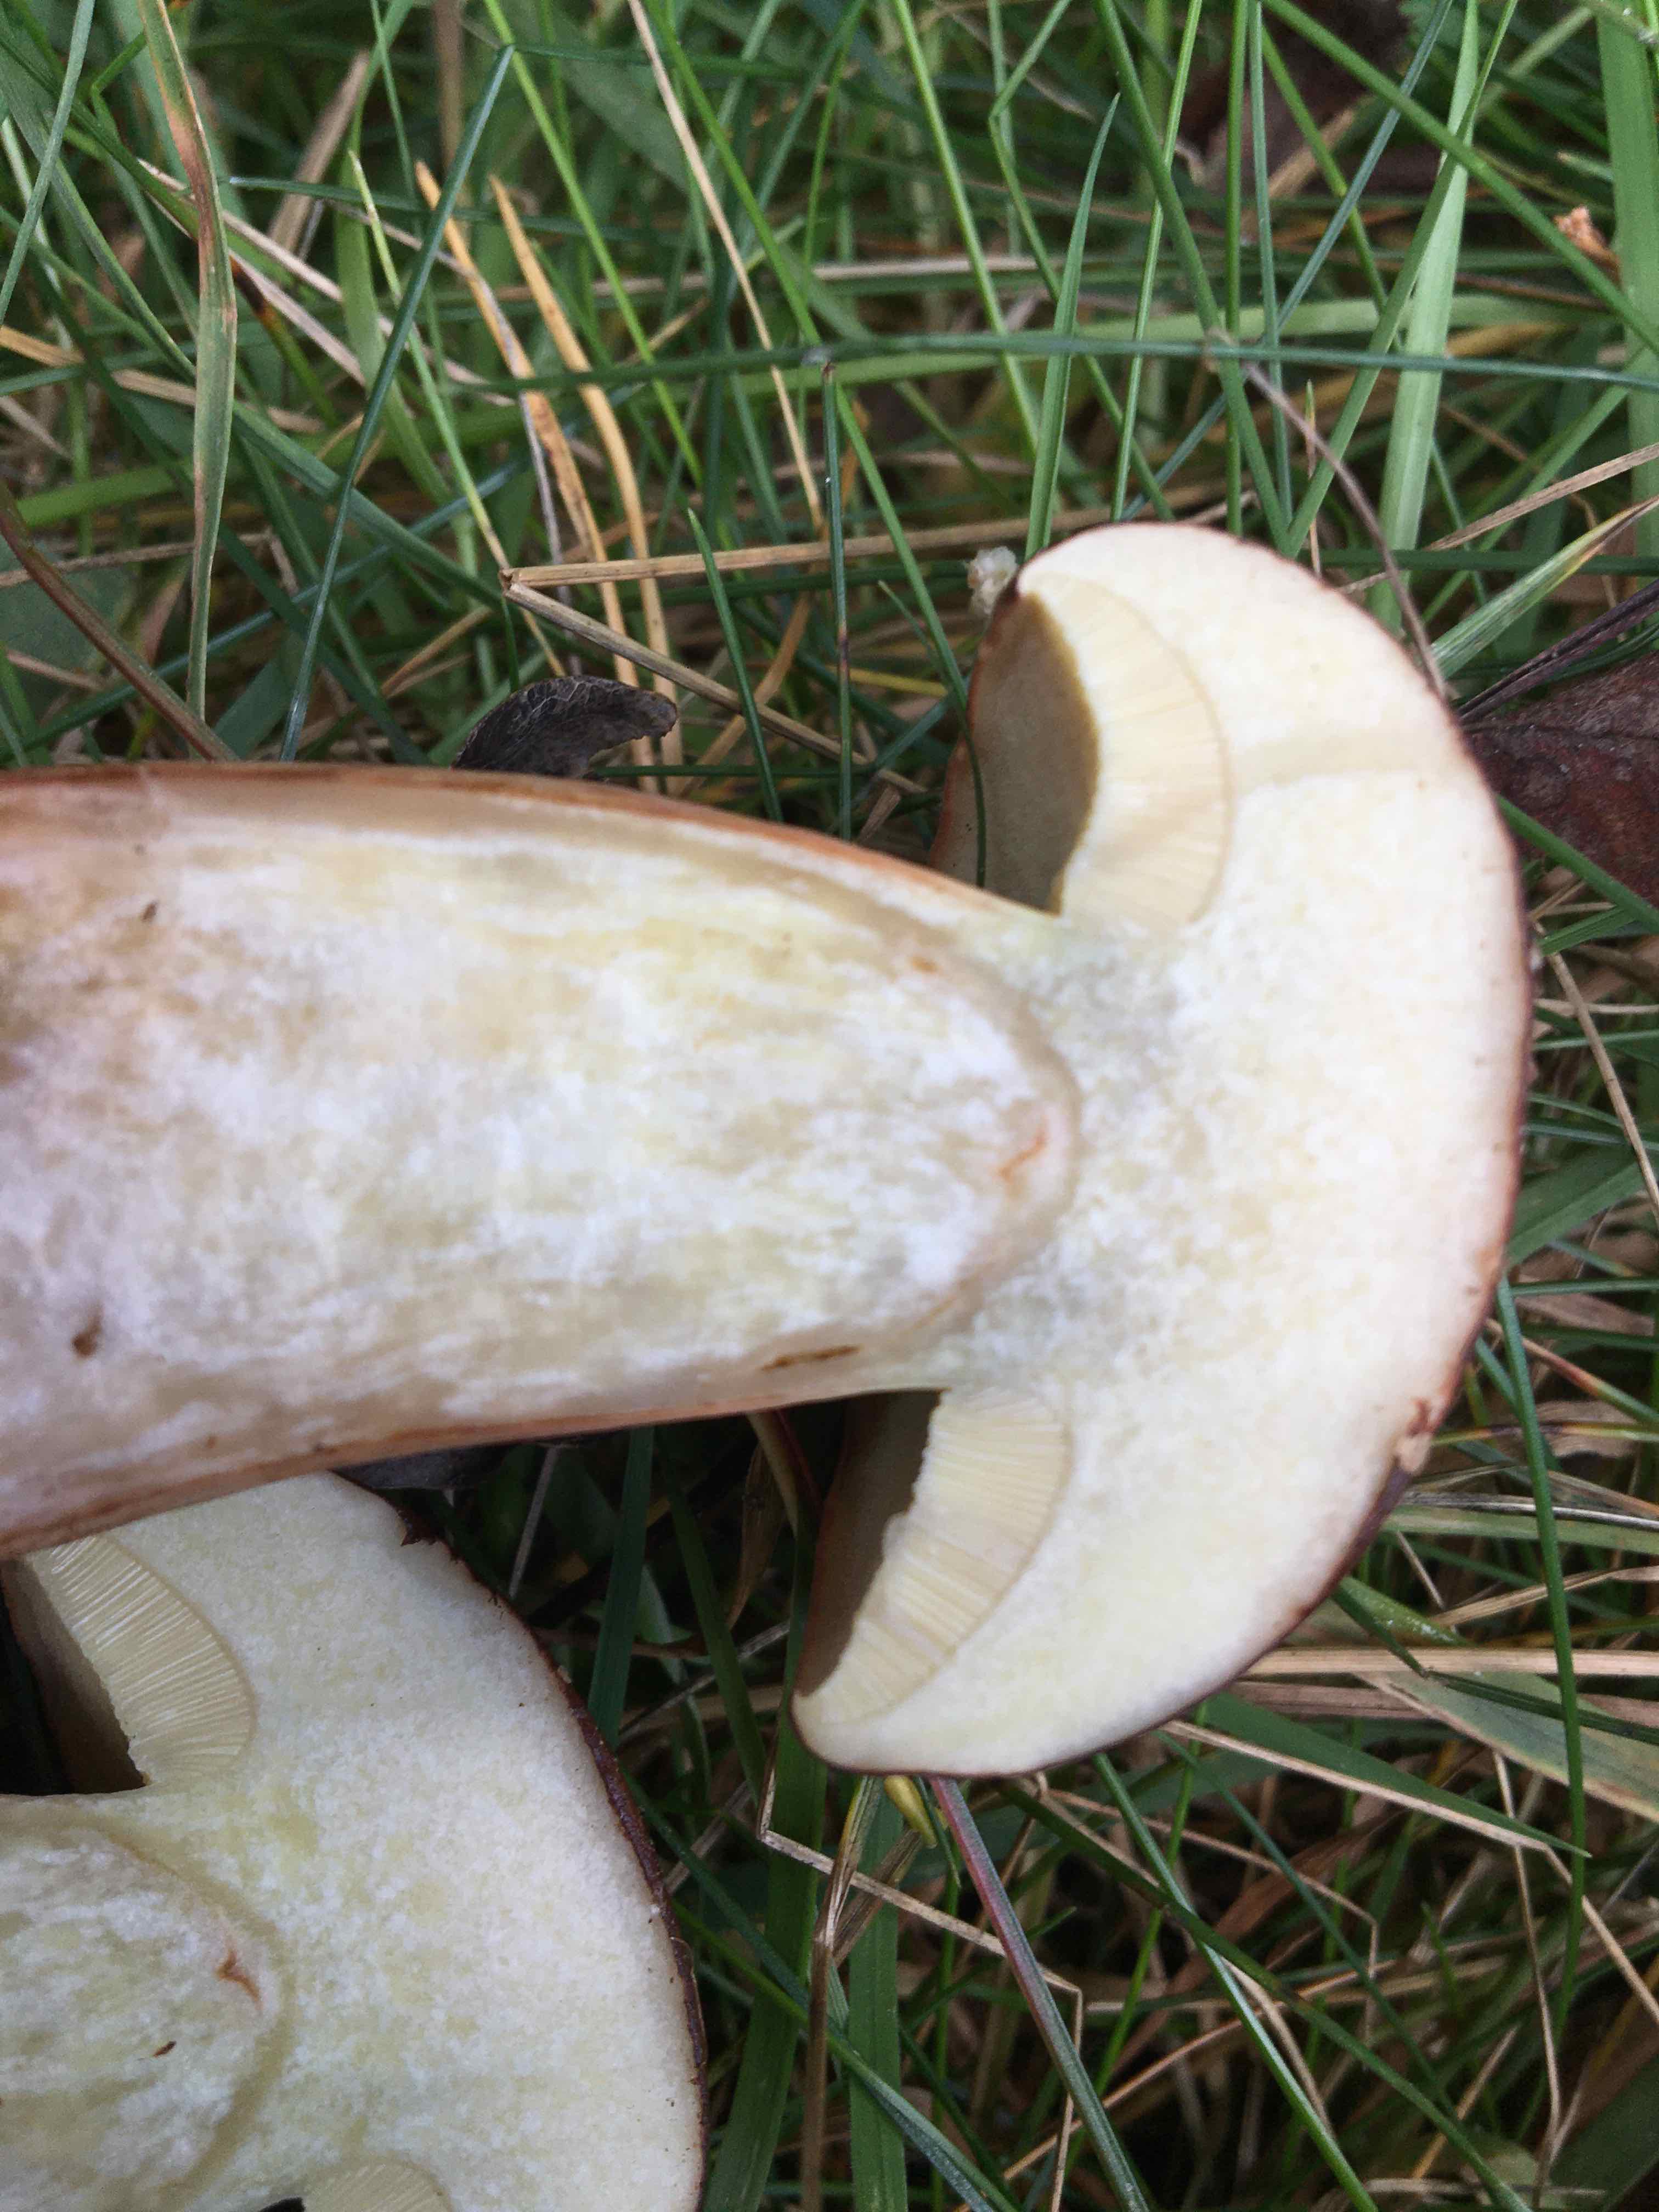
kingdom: Fungi
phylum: Basidiomycota
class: Agaricomycetes
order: Boletales
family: Boletaceae
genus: Imleria
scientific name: Imleria badia
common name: brunstokket rørhat
